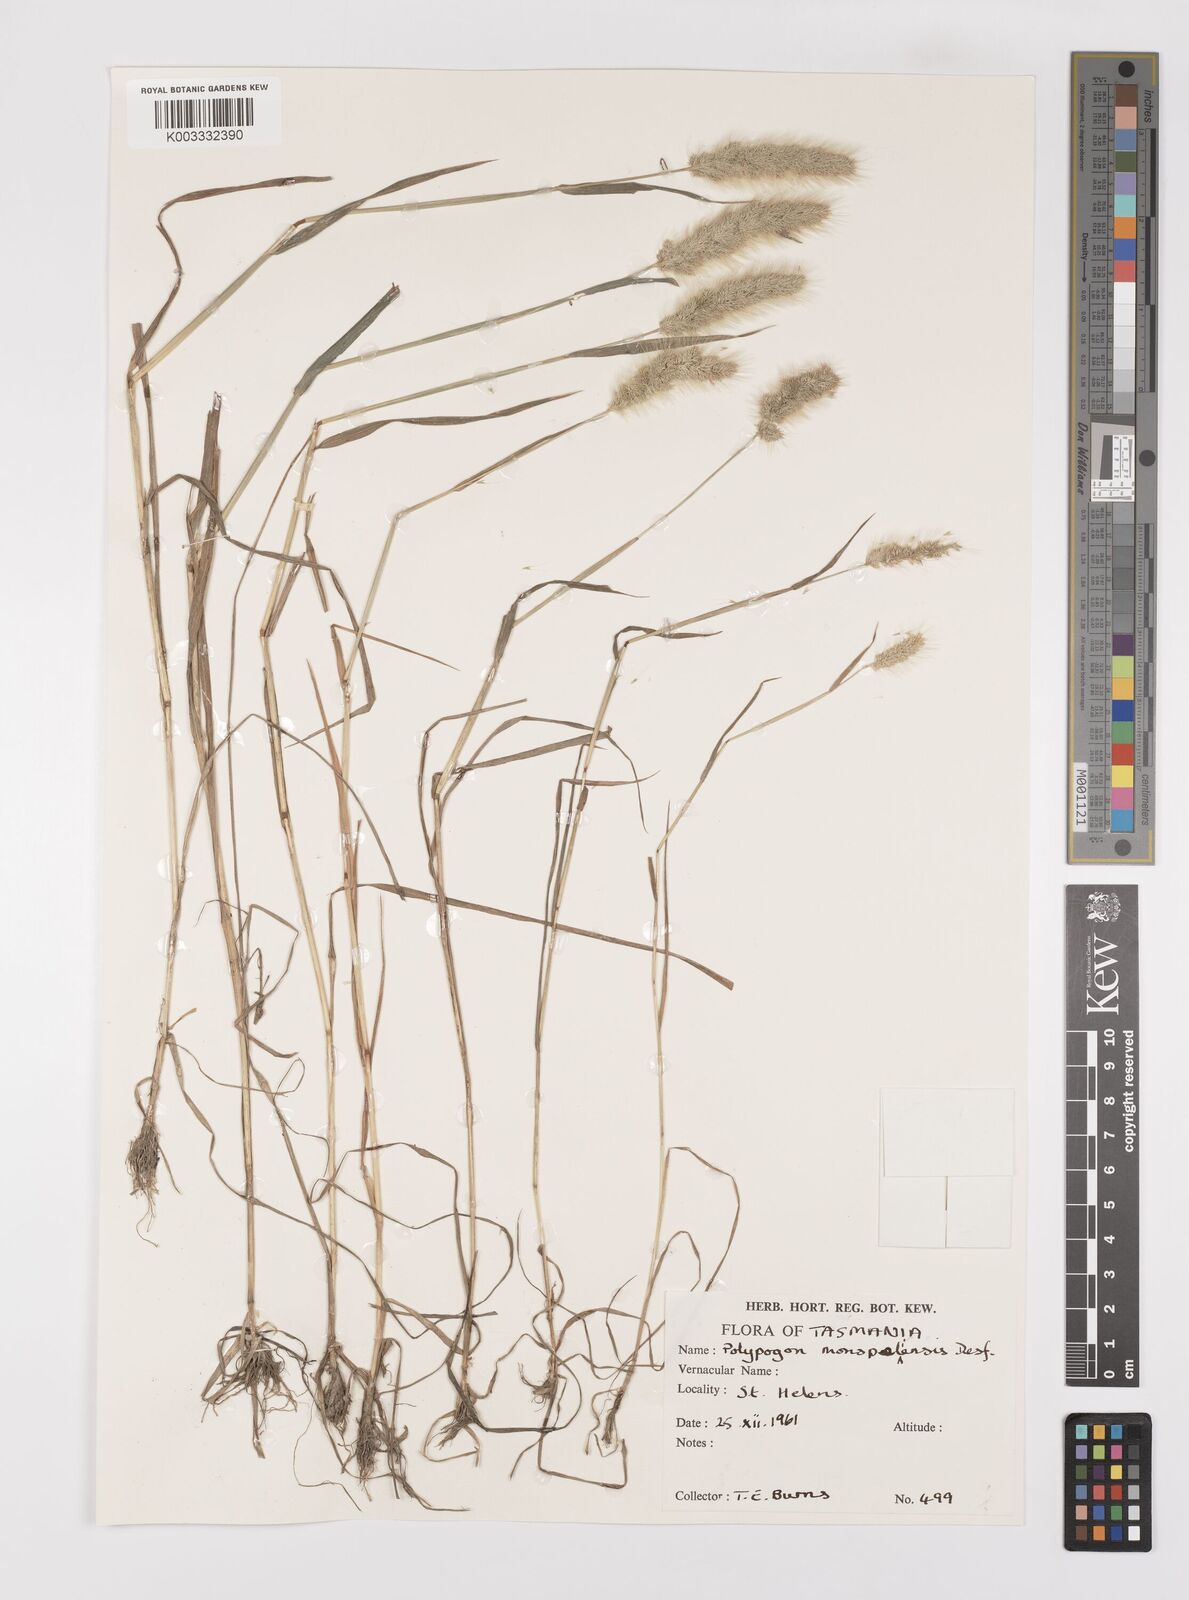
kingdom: Plantae
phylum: Tracheophyta
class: Liliopsida
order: Poales
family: Poaceae
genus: Polypogon
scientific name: Polypogon monspeliensis
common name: Annual rabbitsfoot grass
